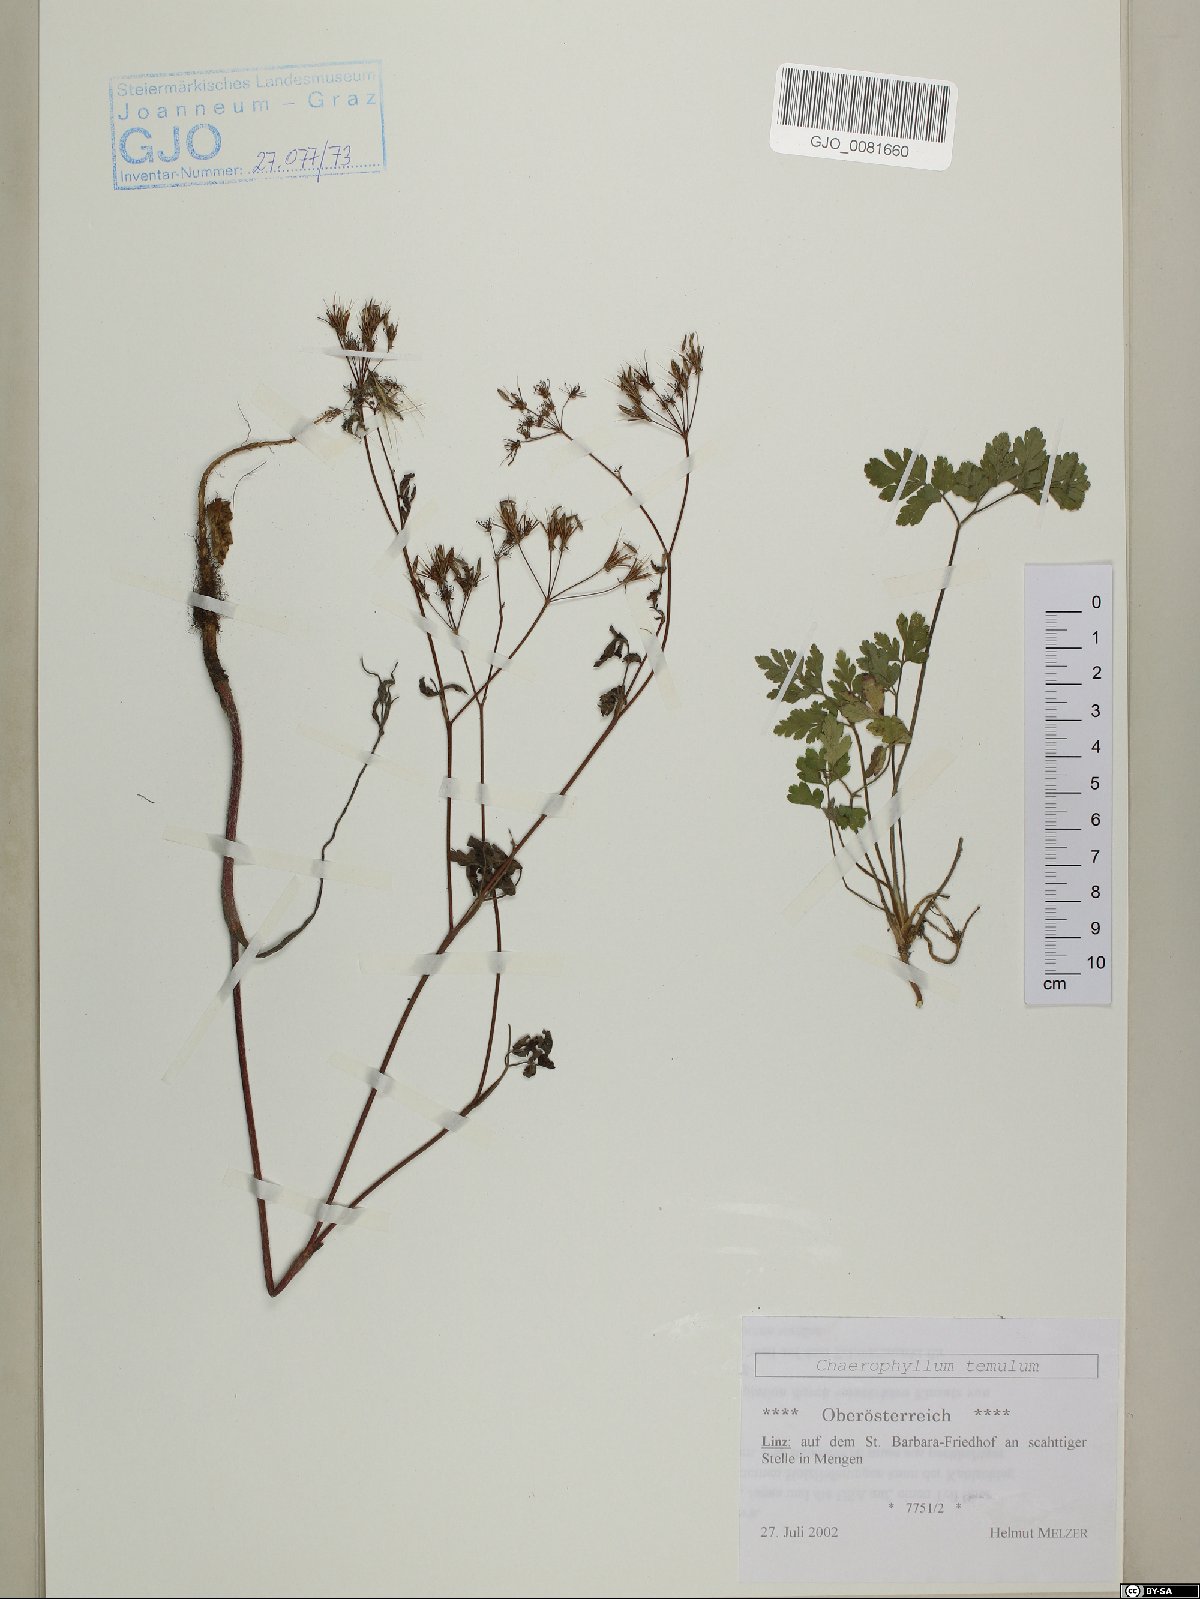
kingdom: Plantae
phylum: Tracheophyta
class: Magnoliopsida
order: Apiales
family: Apiaceae
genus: Chaerophyllum
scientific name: Chaerophyllum temulum
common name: Rough chervil
